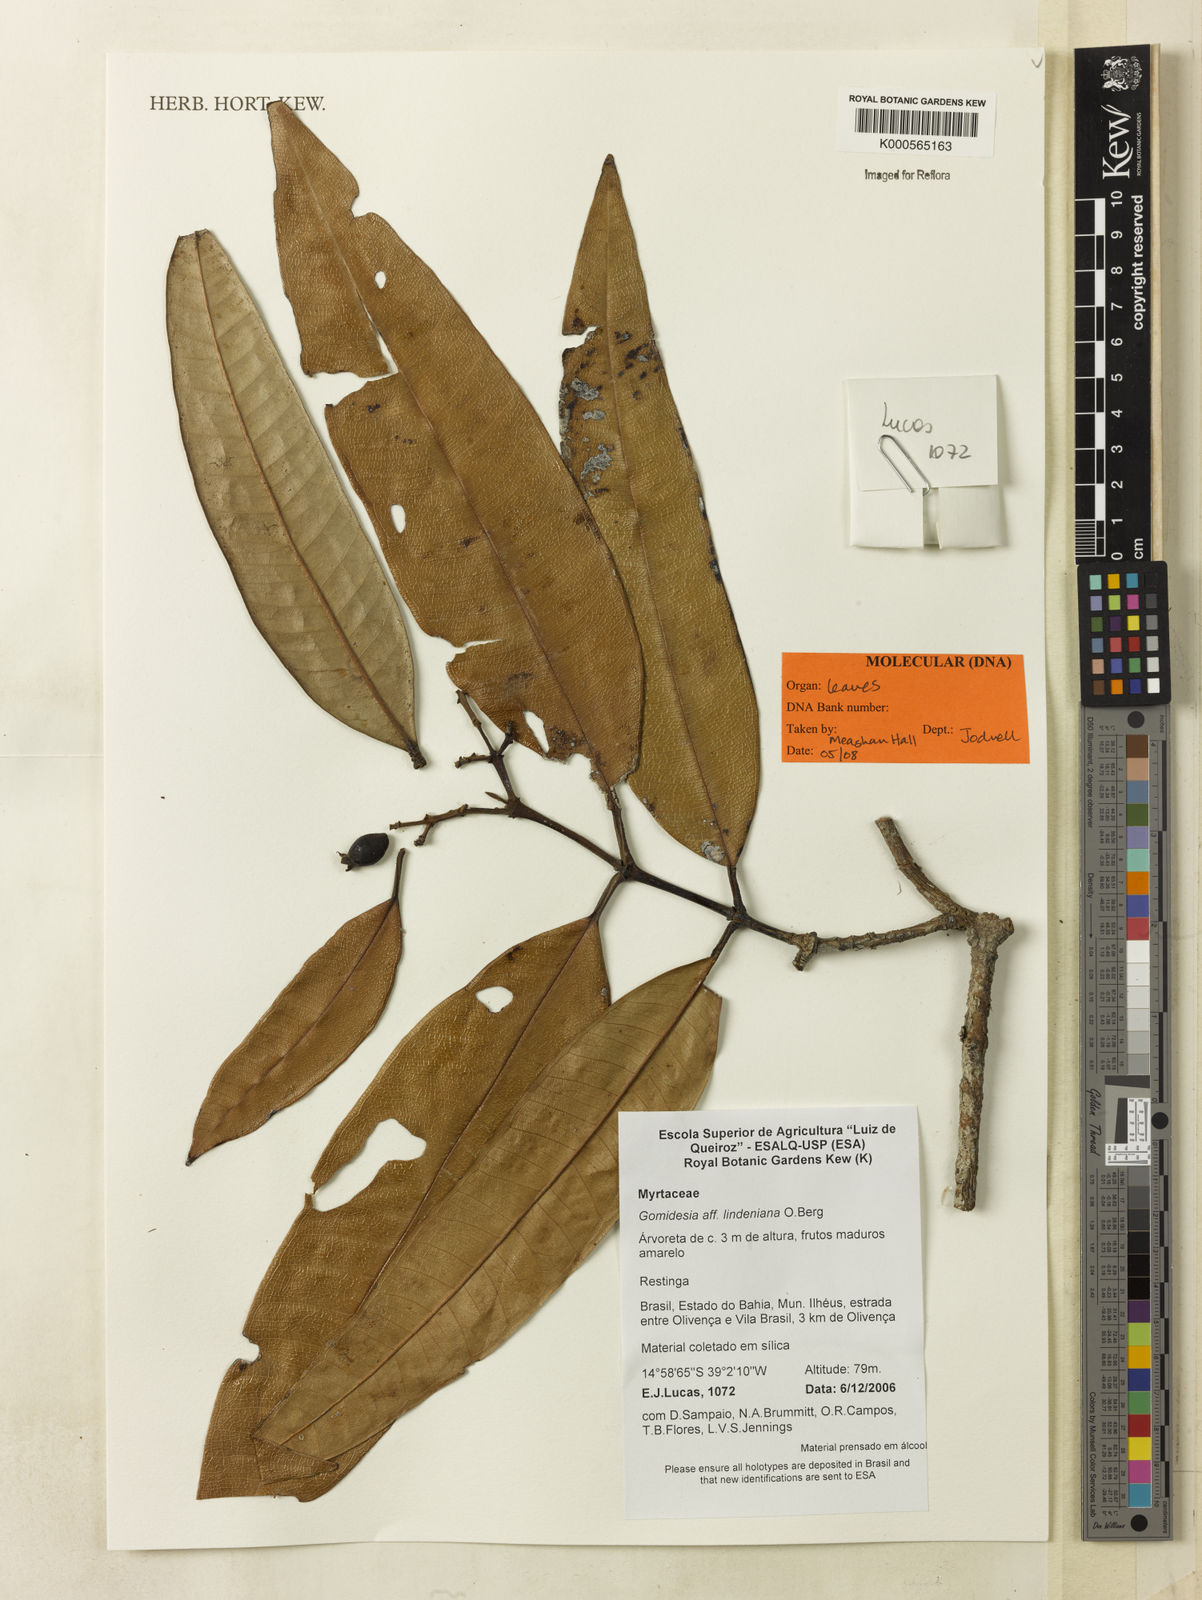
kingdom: Plantae
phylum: Tracheophyta
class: Magnoliopsida
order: Myrtales
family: Myrtaceae
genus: Myrcia
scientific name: Myrcia fenzliana
